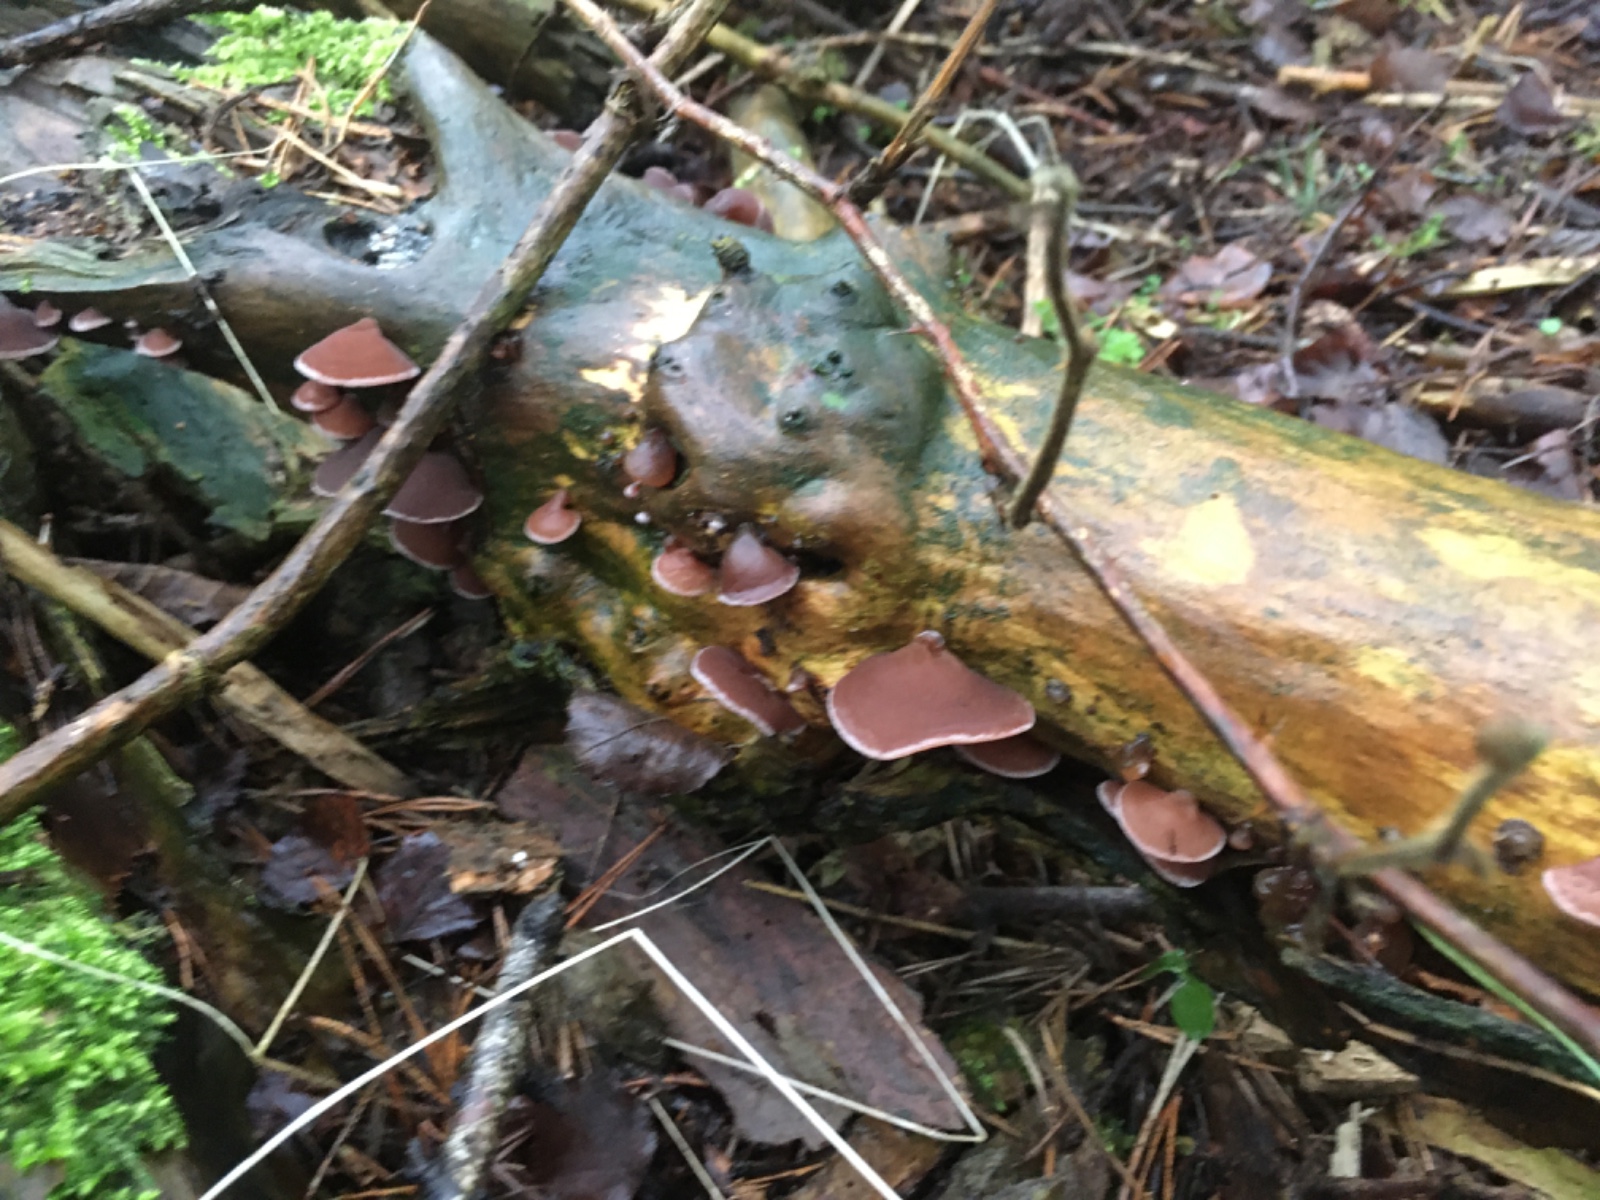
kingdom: Fungi
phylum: Basidiomycota
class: Agaricomycetes
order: Auriculariales
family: Auriculariaceae
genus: Auricularia
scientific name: Auricularia auricula-judae
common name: almindelig judasøre
